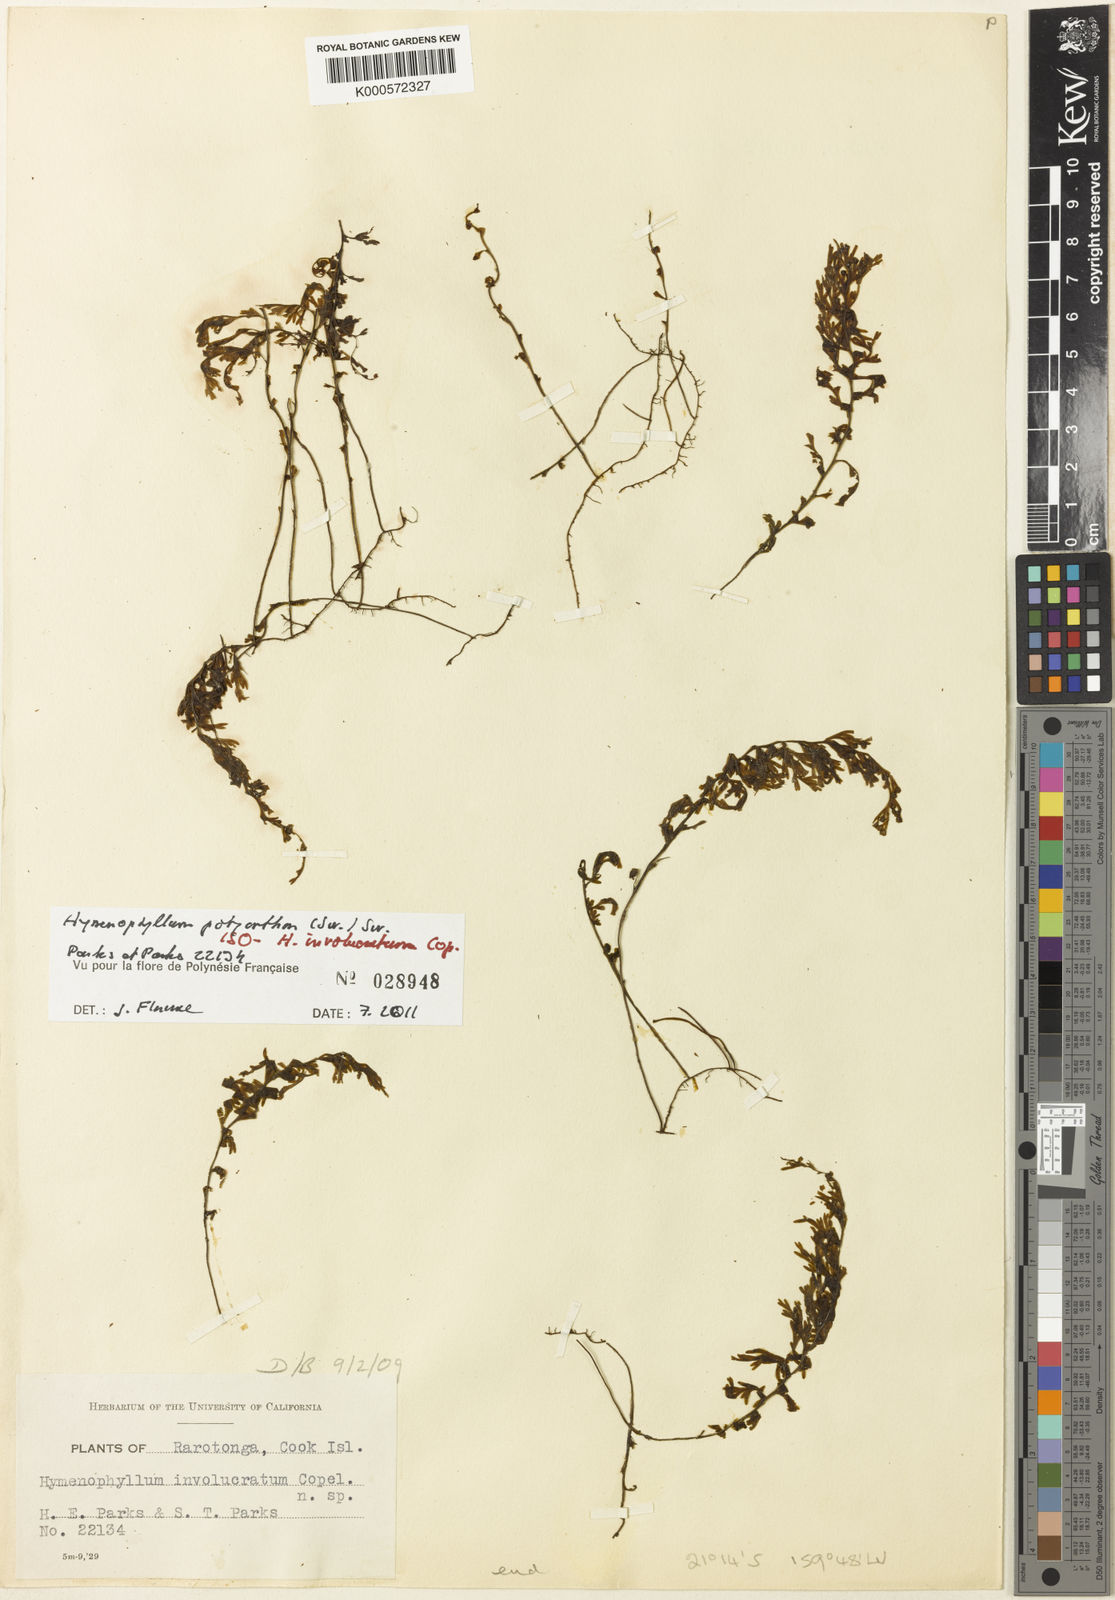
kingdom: Plantae
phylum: Tracheophyta
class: Polypodiopsida
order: Hymenophyllales
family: Hymenophyllaceae
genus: Hymenophyllum
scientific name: Hymenophyllum polyanthos
